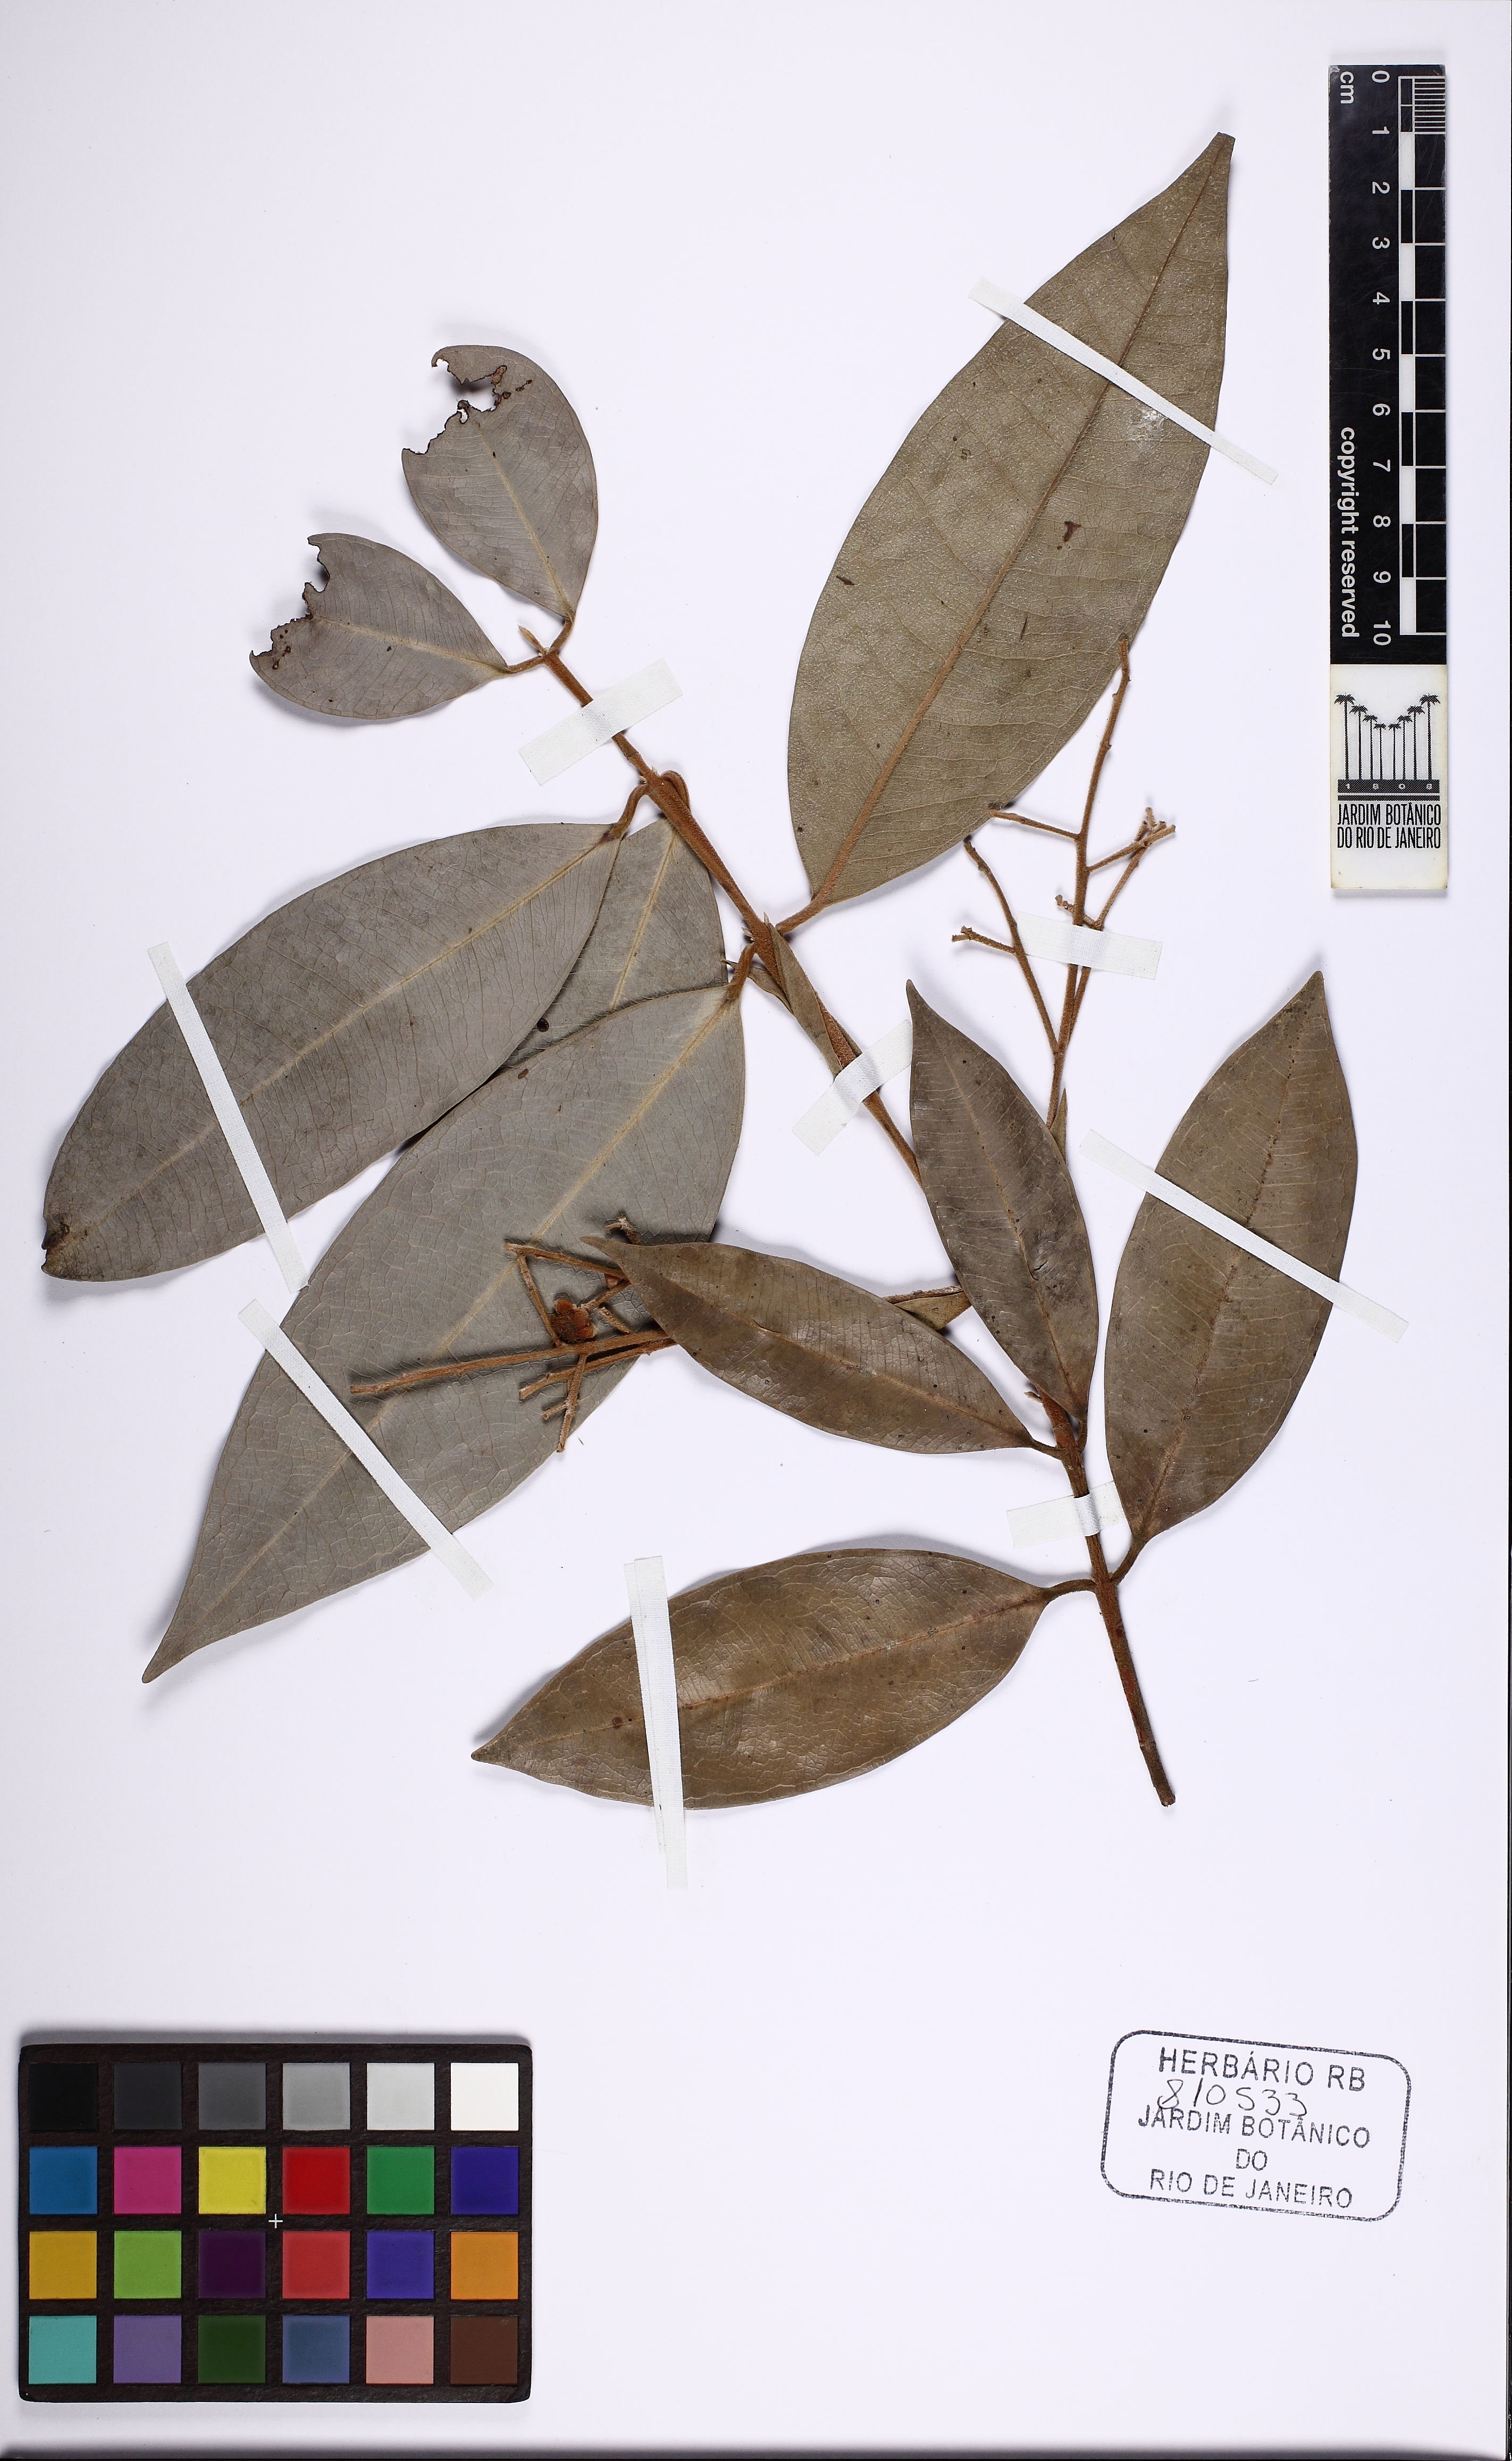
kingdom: Plantae
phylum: Tracheophyta
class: Magnoliopsida
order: Myrtales
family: Myrtaceae
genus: Myrcia
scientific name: Myrcia neodimorpha
